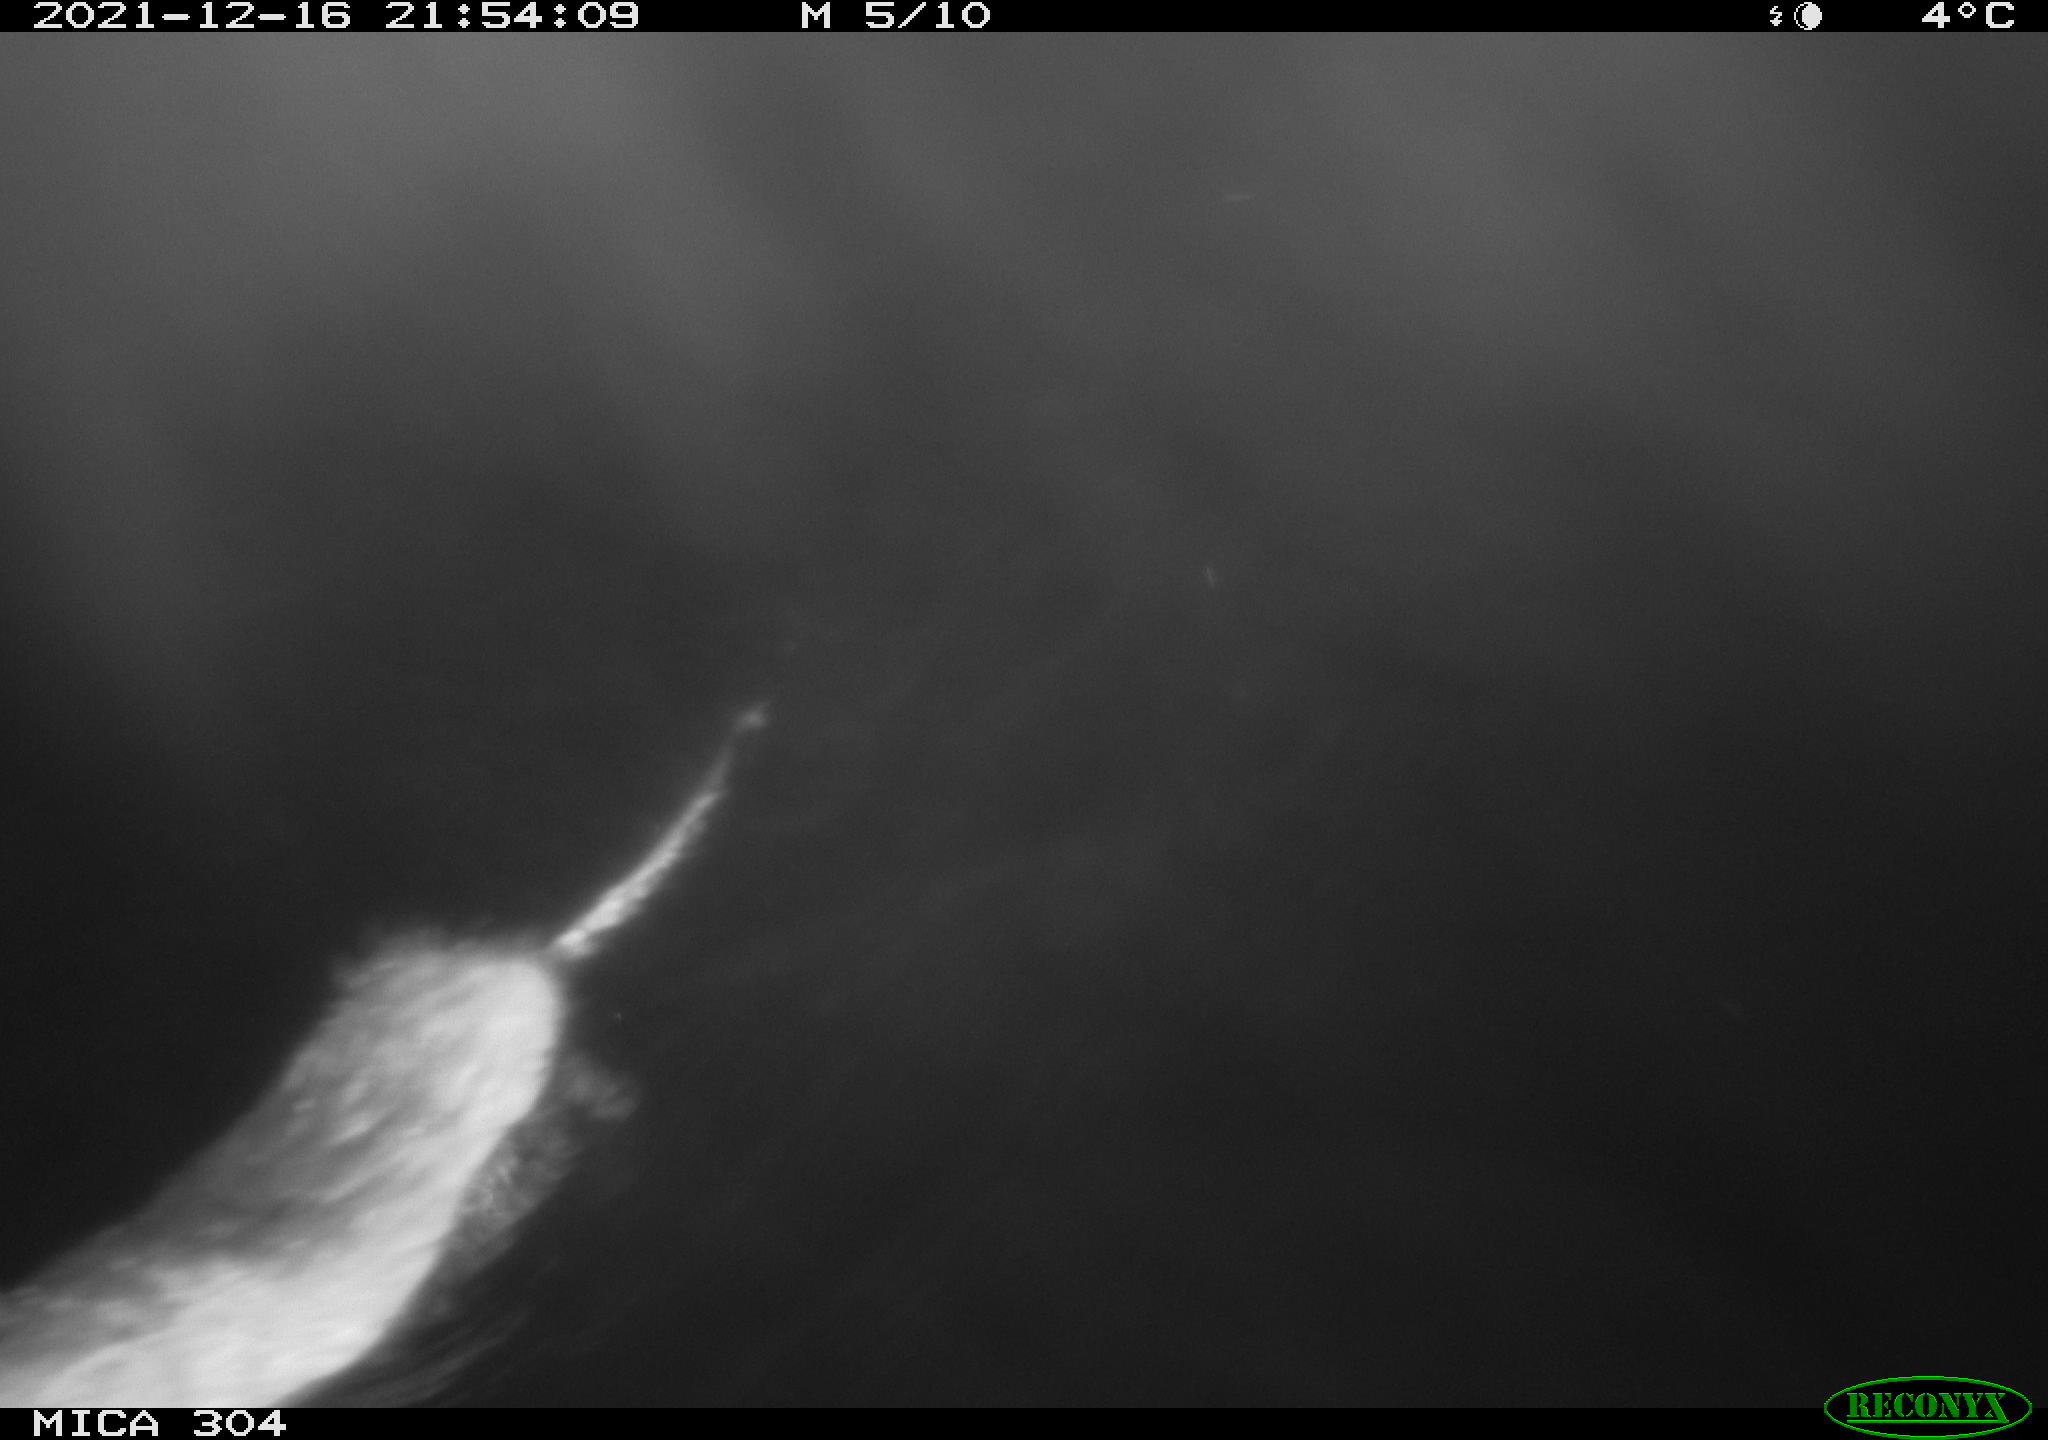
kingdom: Animalia
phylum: Chordata
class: Mammalia
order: Rodentia
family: Muridae
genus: Rattus
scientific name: Rattus norvegicus
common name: Brown rat
